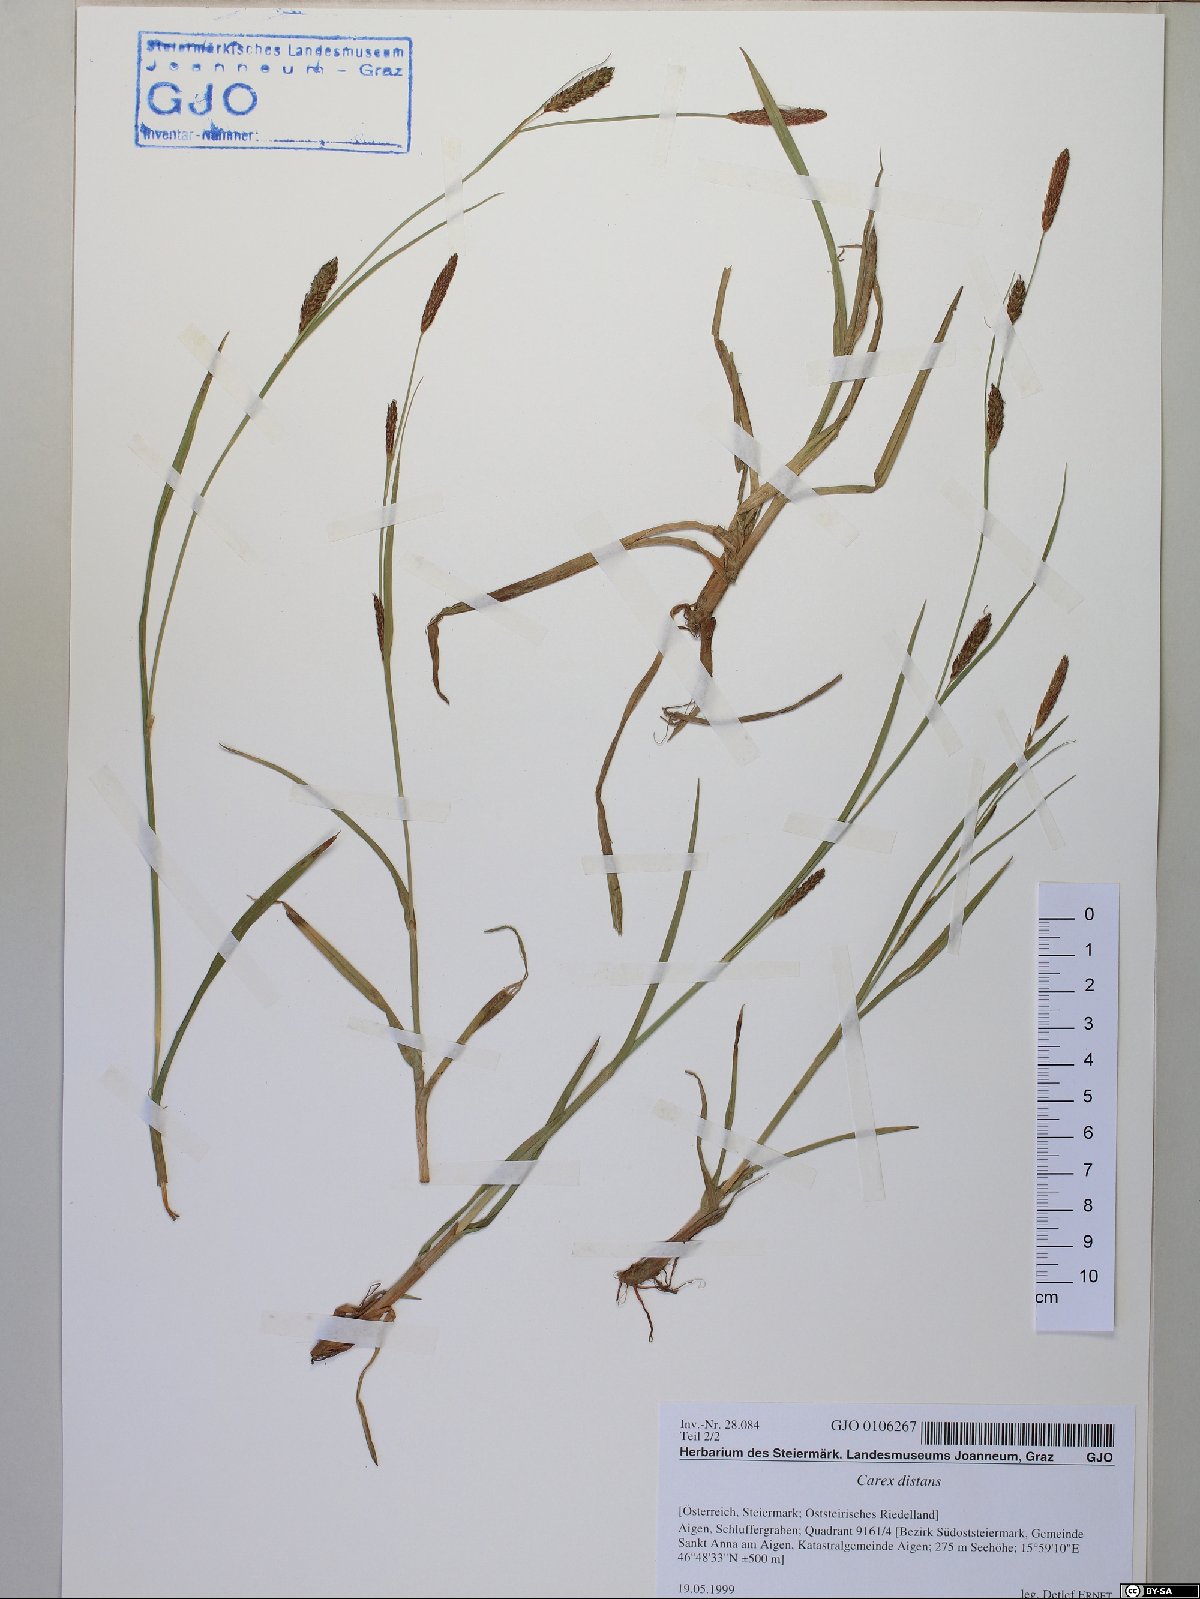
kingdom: Plantae
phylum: Tracheophyta
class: Liliopsida
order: Poales
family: Cyperaceae
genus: Carex
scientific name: Carex distans
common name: Distant sedge
